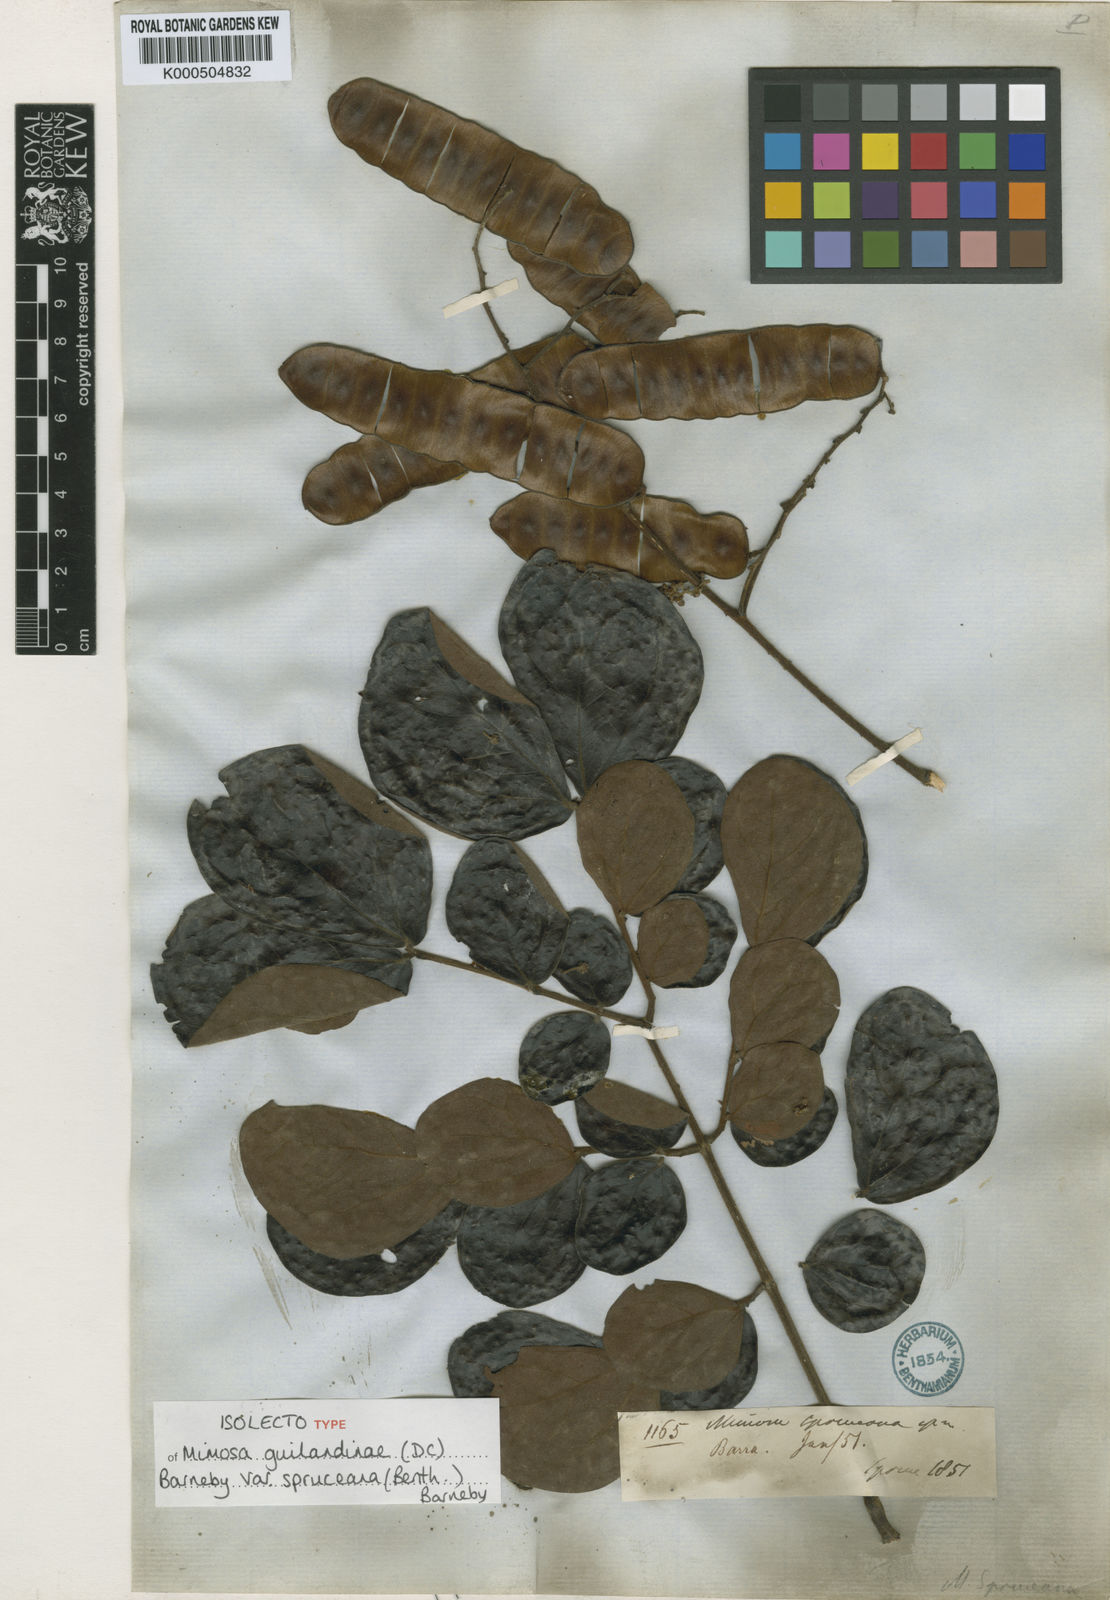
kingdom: Plantae
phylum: Tracheophyta
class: Magnoliopsida
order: Fabales
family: Fabaceae
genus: Mimosa
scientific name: Mimosa guilandinae
